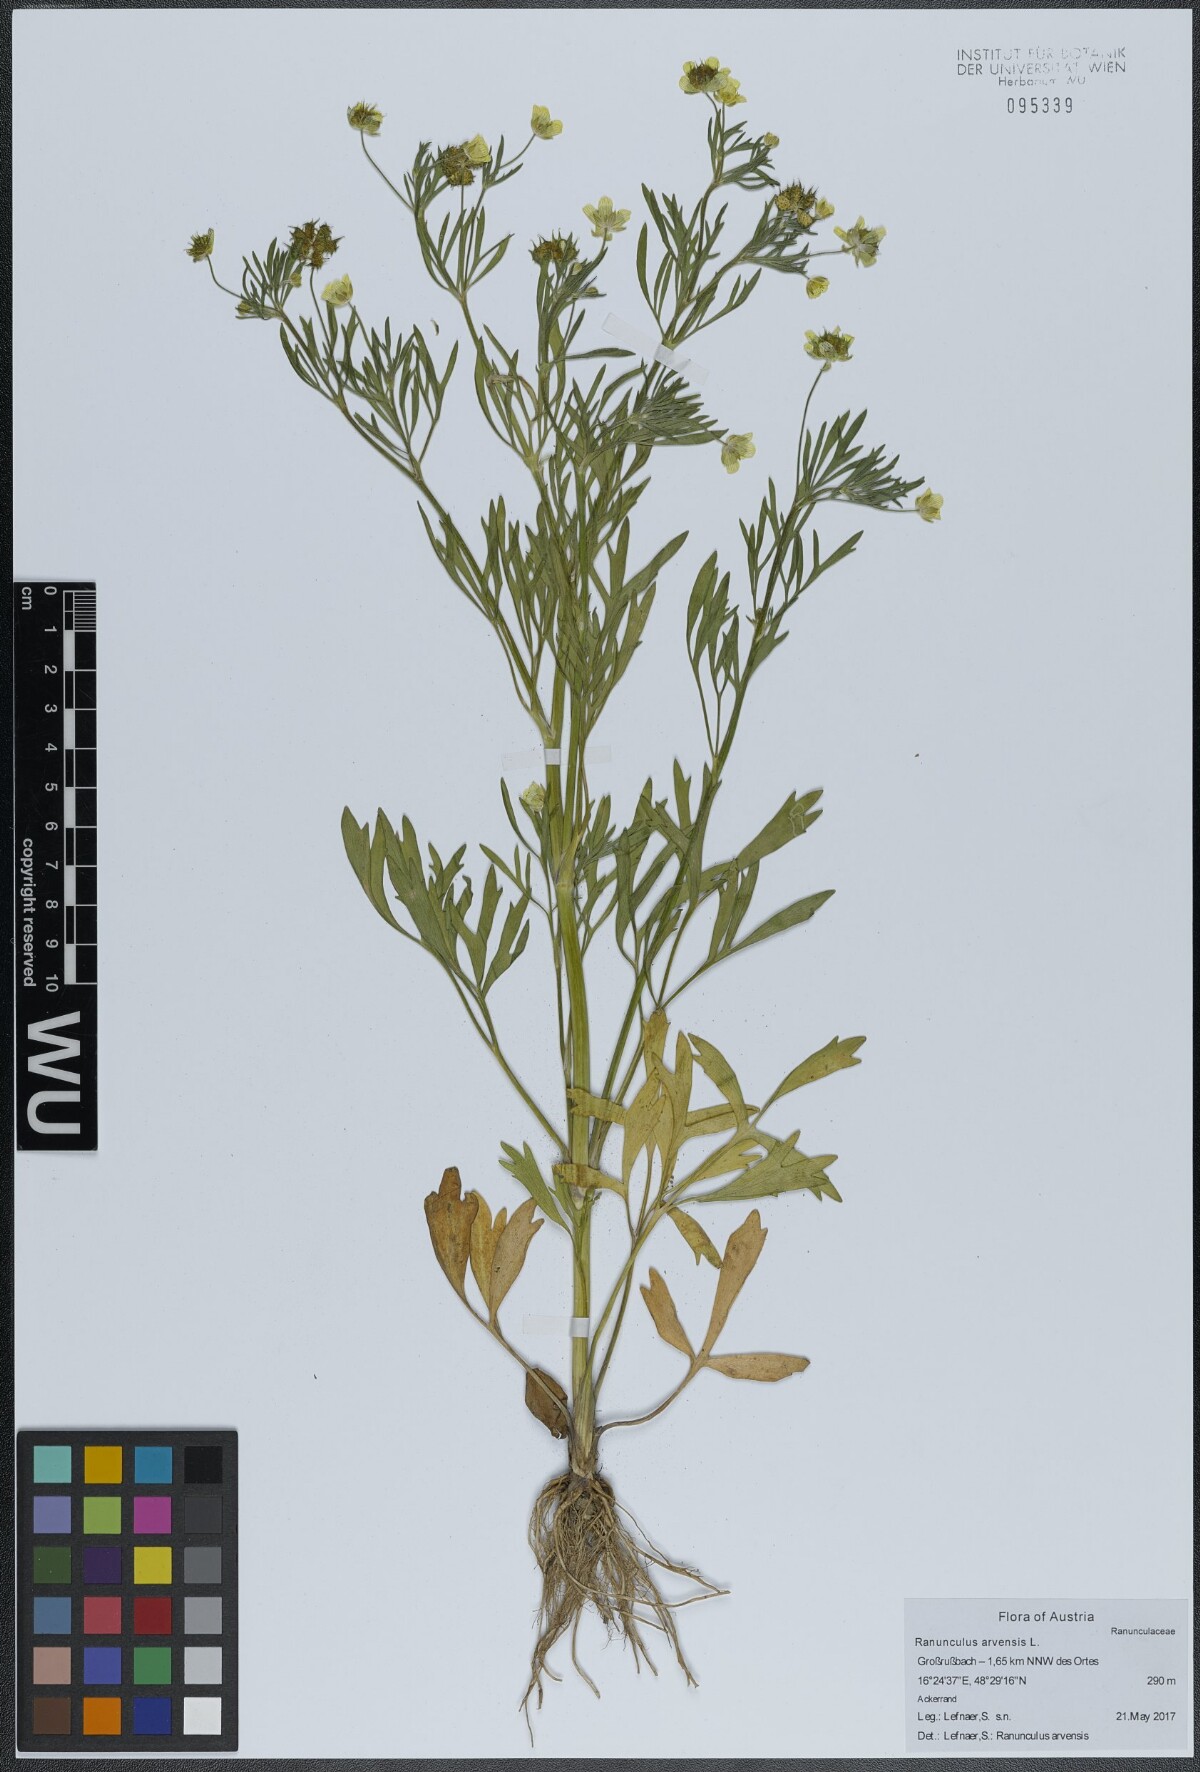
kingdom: Plantae
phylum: Tracheophyta
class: Magnoliopsida
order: Ranunculales
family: Ranunculaceae
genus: Ranunculus
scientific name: Ranunculus arvensis
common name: Corn buttercup
